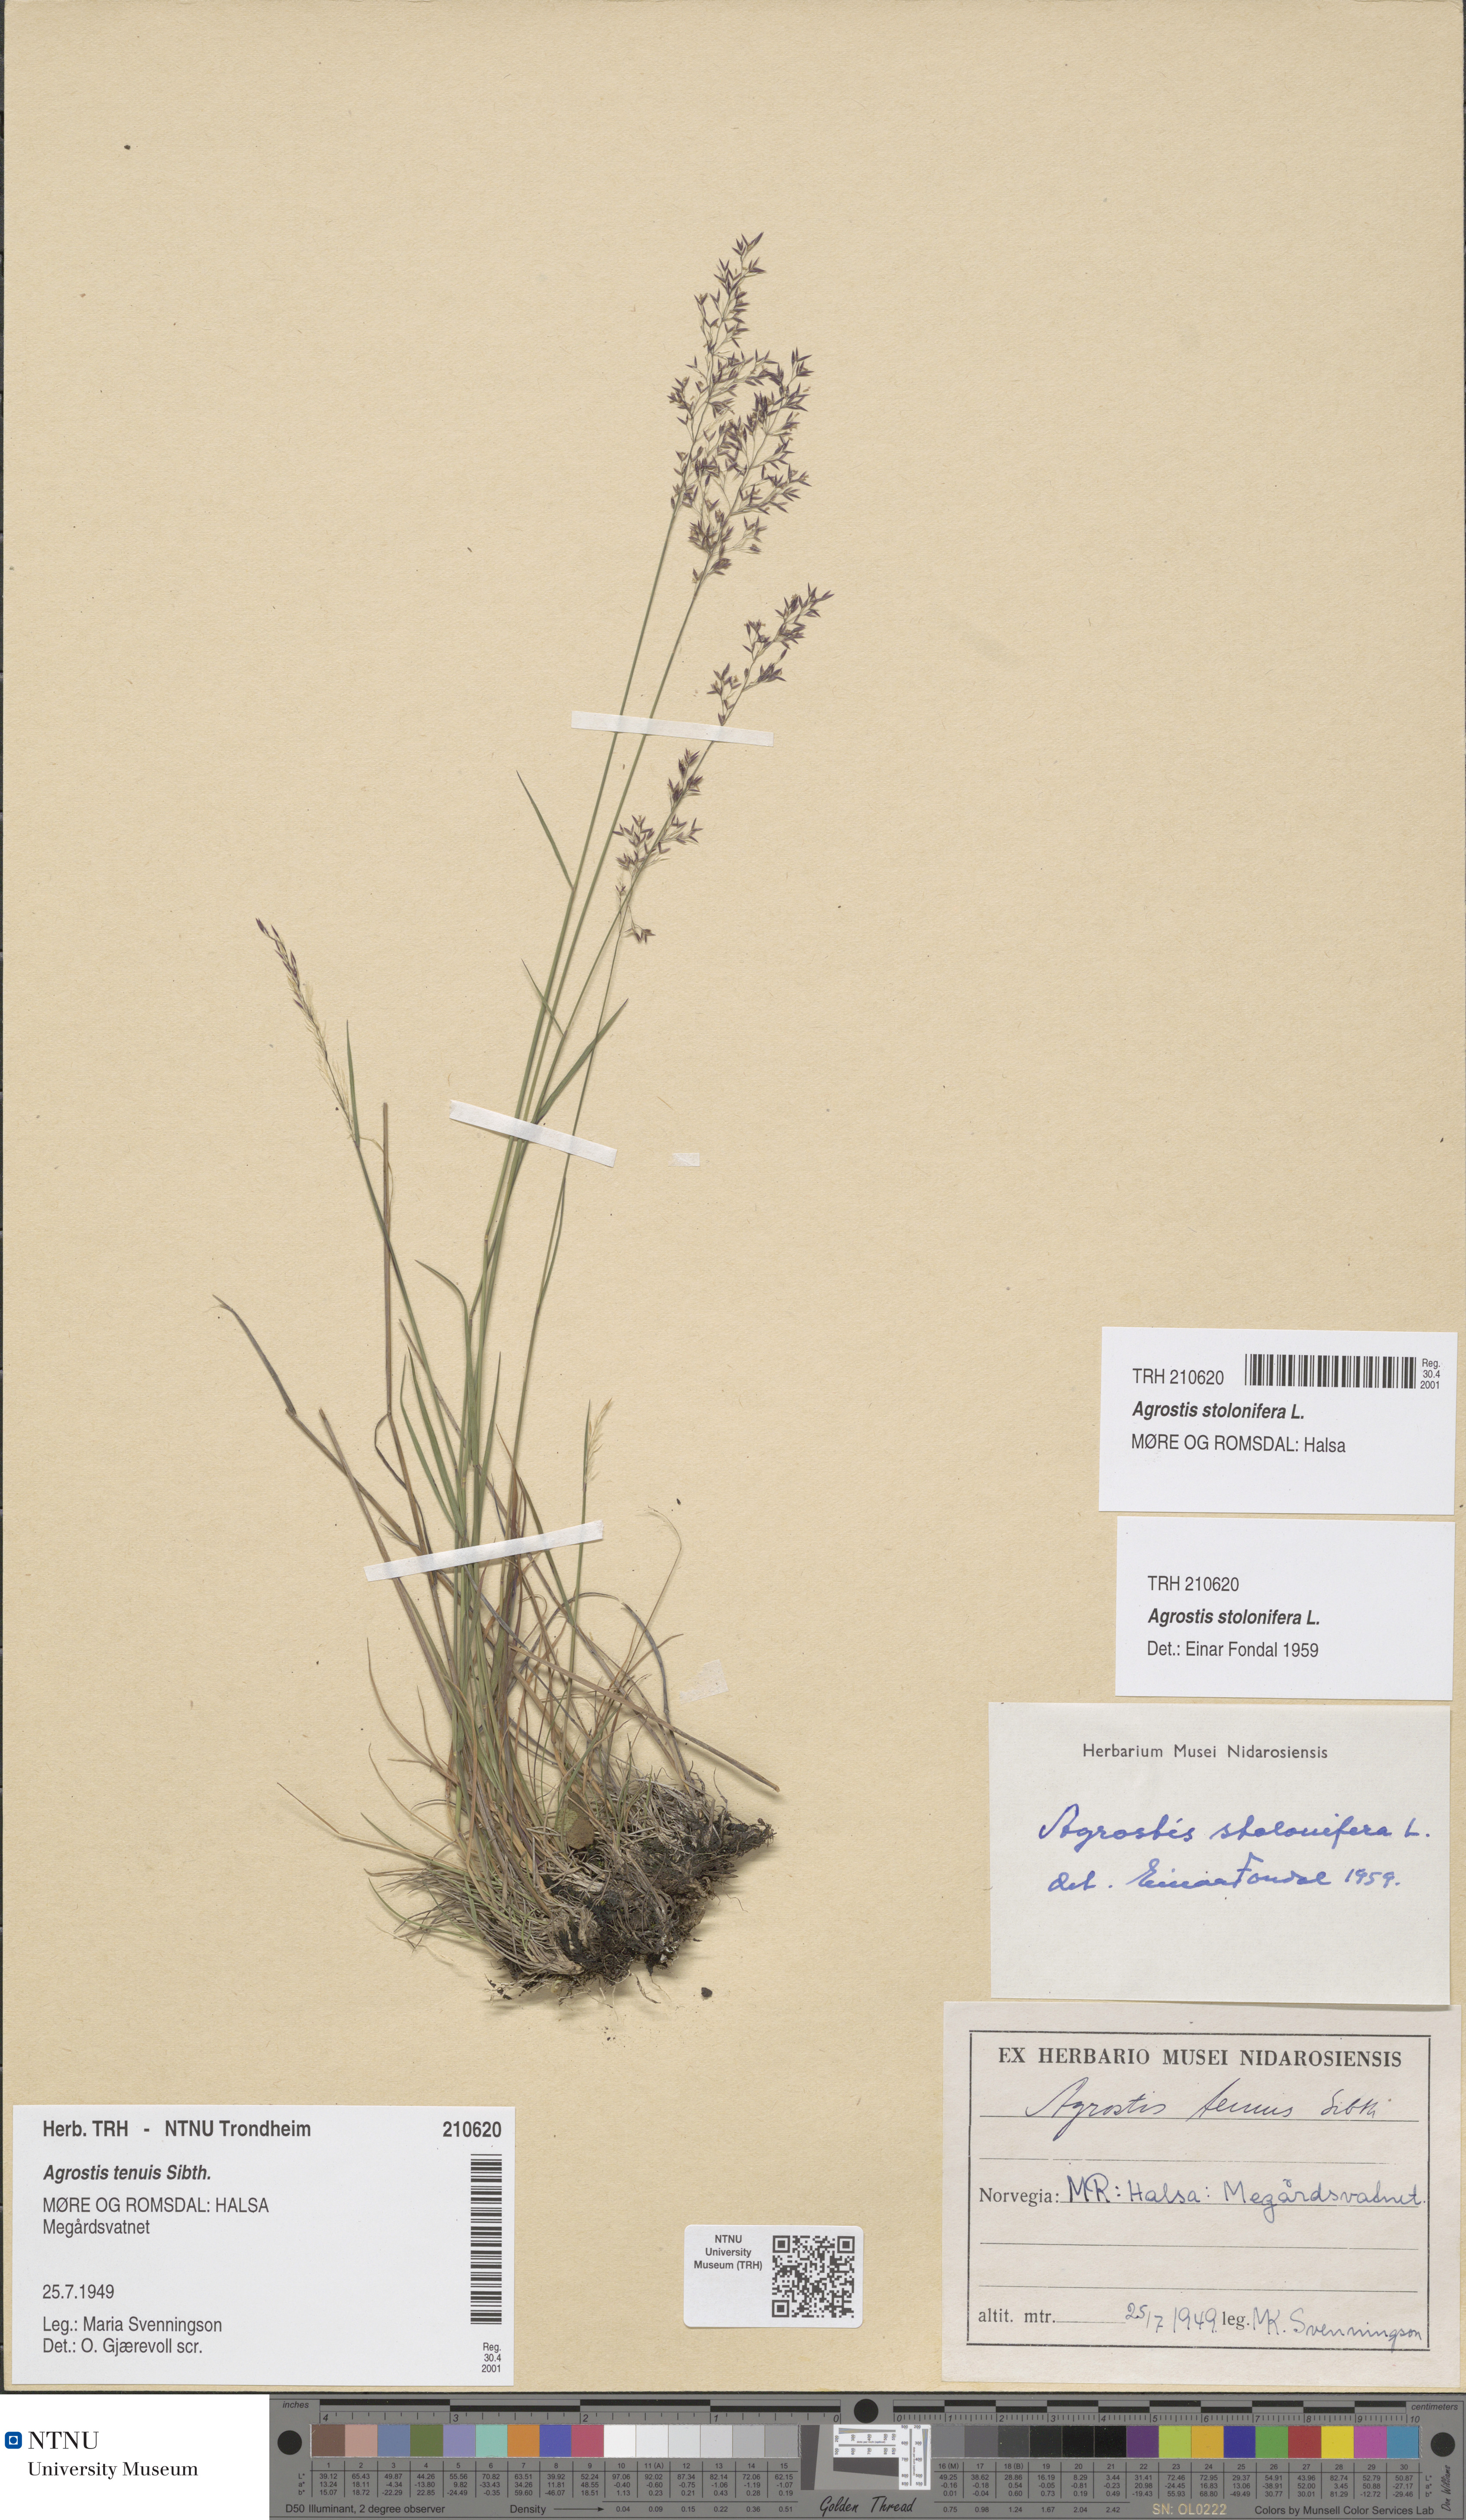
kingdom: Plantae
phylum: Tracheophyta
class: Liliopsida
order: Poales
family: Poaceae
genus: Agrostis
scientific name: Agrostis stolonifera
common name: Creeping bentgrass
